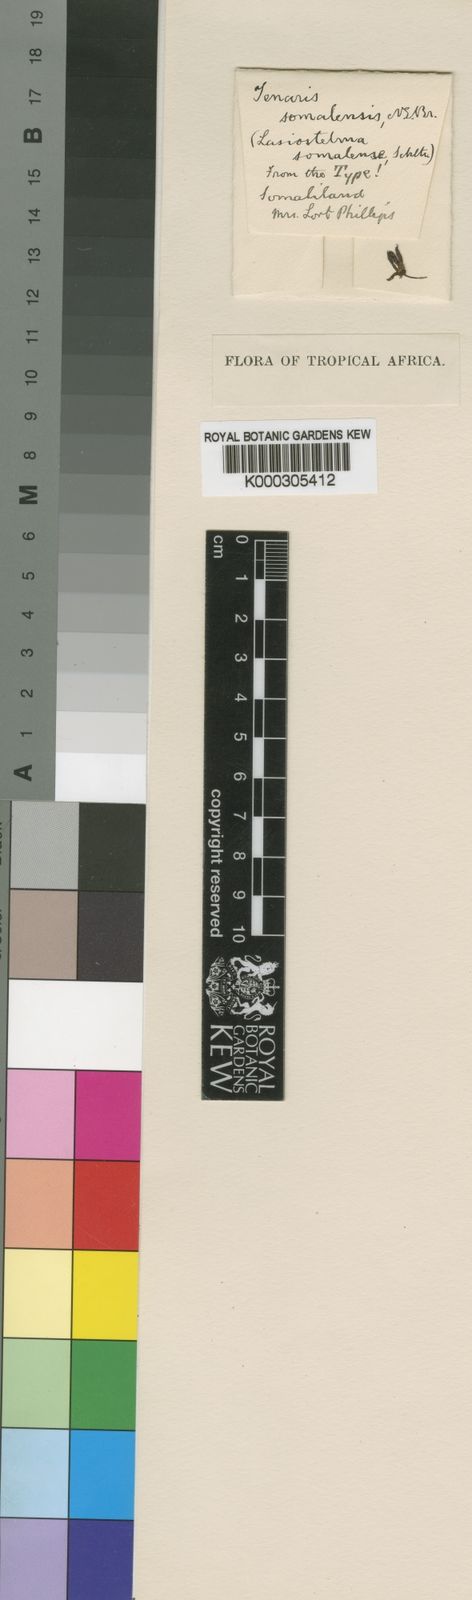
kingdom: Plantae
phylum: Tracheophyta
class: Magnoliopsida
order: Gentianales
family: Apocynaceae
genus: Ceropegia
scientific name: Ceropegia priogonium
